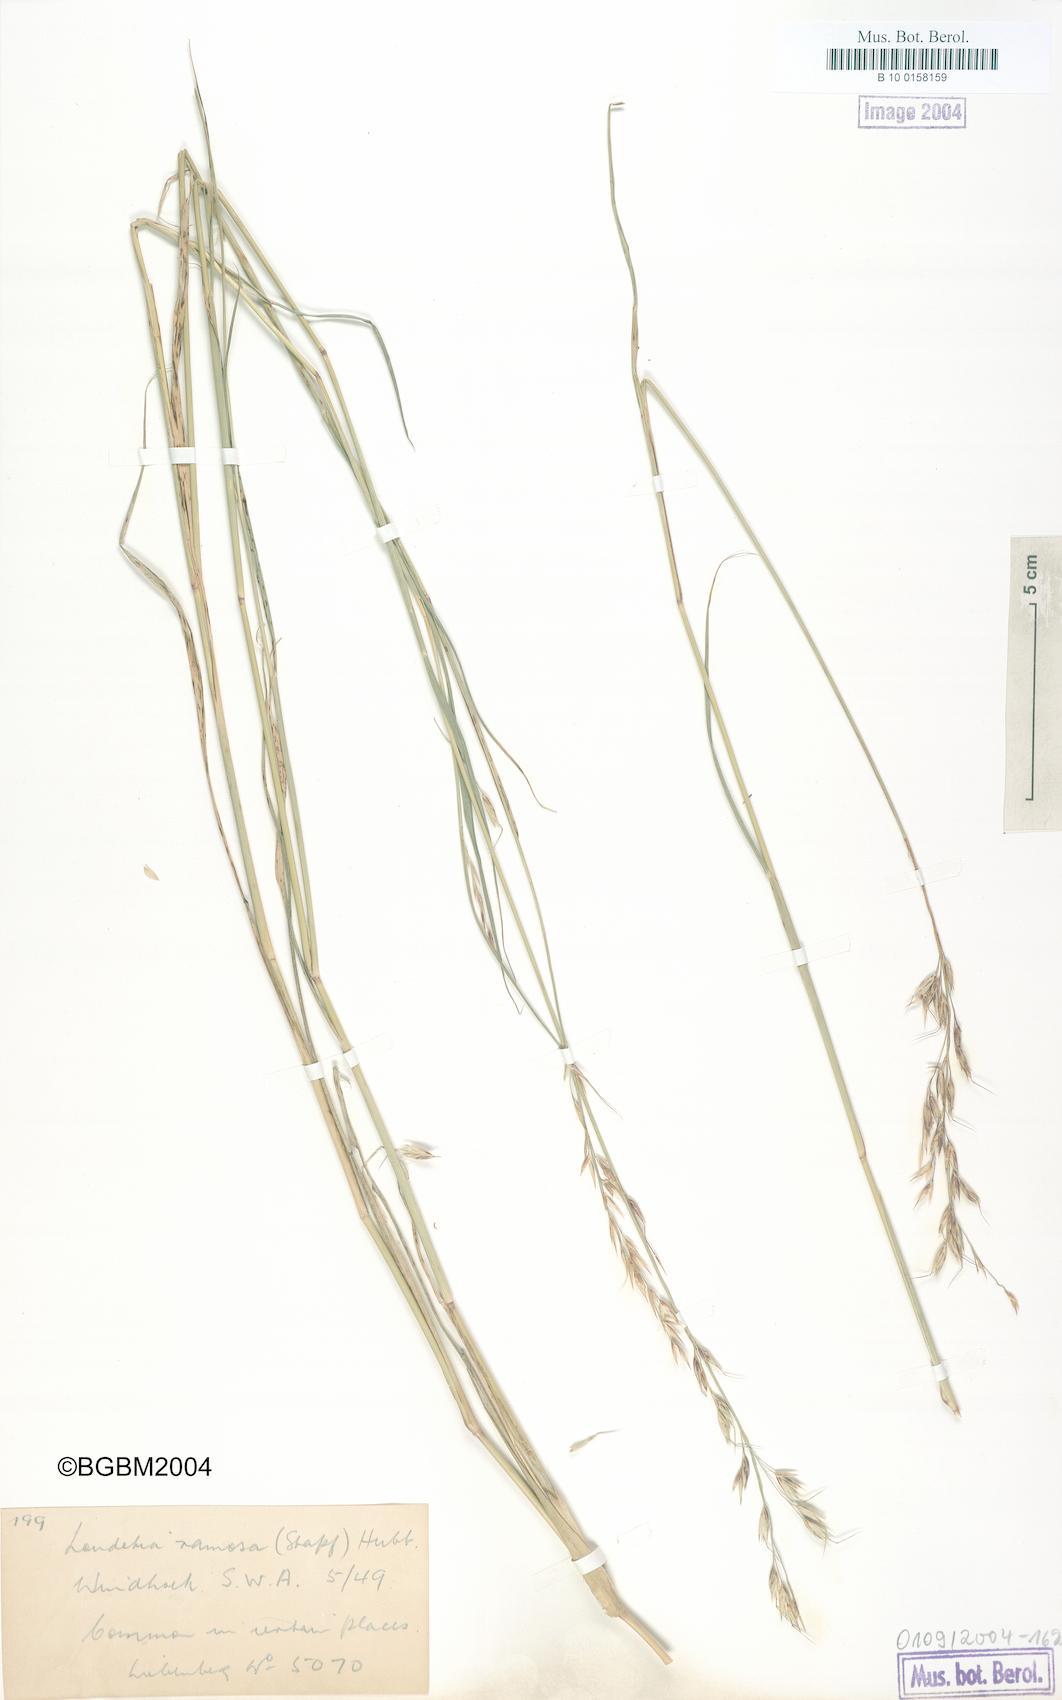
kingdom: Plantae
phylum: Tracheophyta
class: Liliopsida
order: Poales
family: Poaceae
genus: Danthoniopsis
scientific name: Danthoniopsis ramosa
